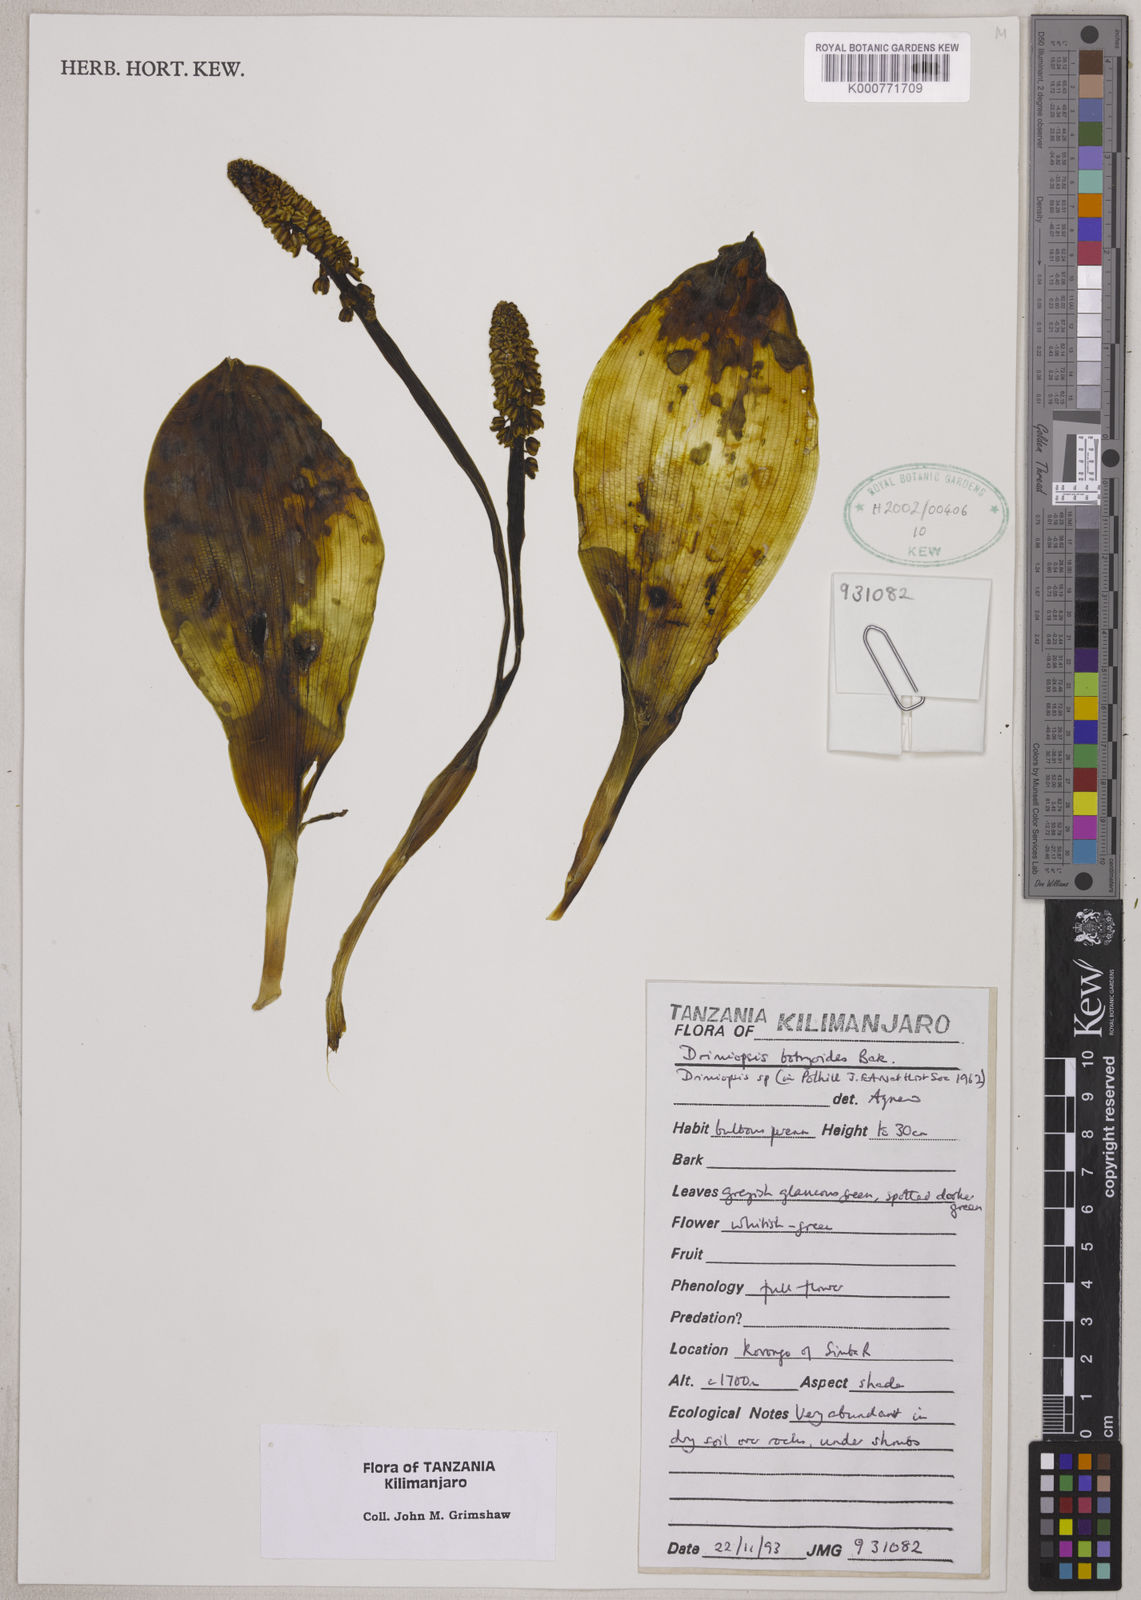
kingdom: Plantae
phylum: Tracheophyta
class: Liliopsida
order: Asparagales
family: Asparagaceae
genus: Drimiopsis
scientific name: Drimiopsis botryoides
